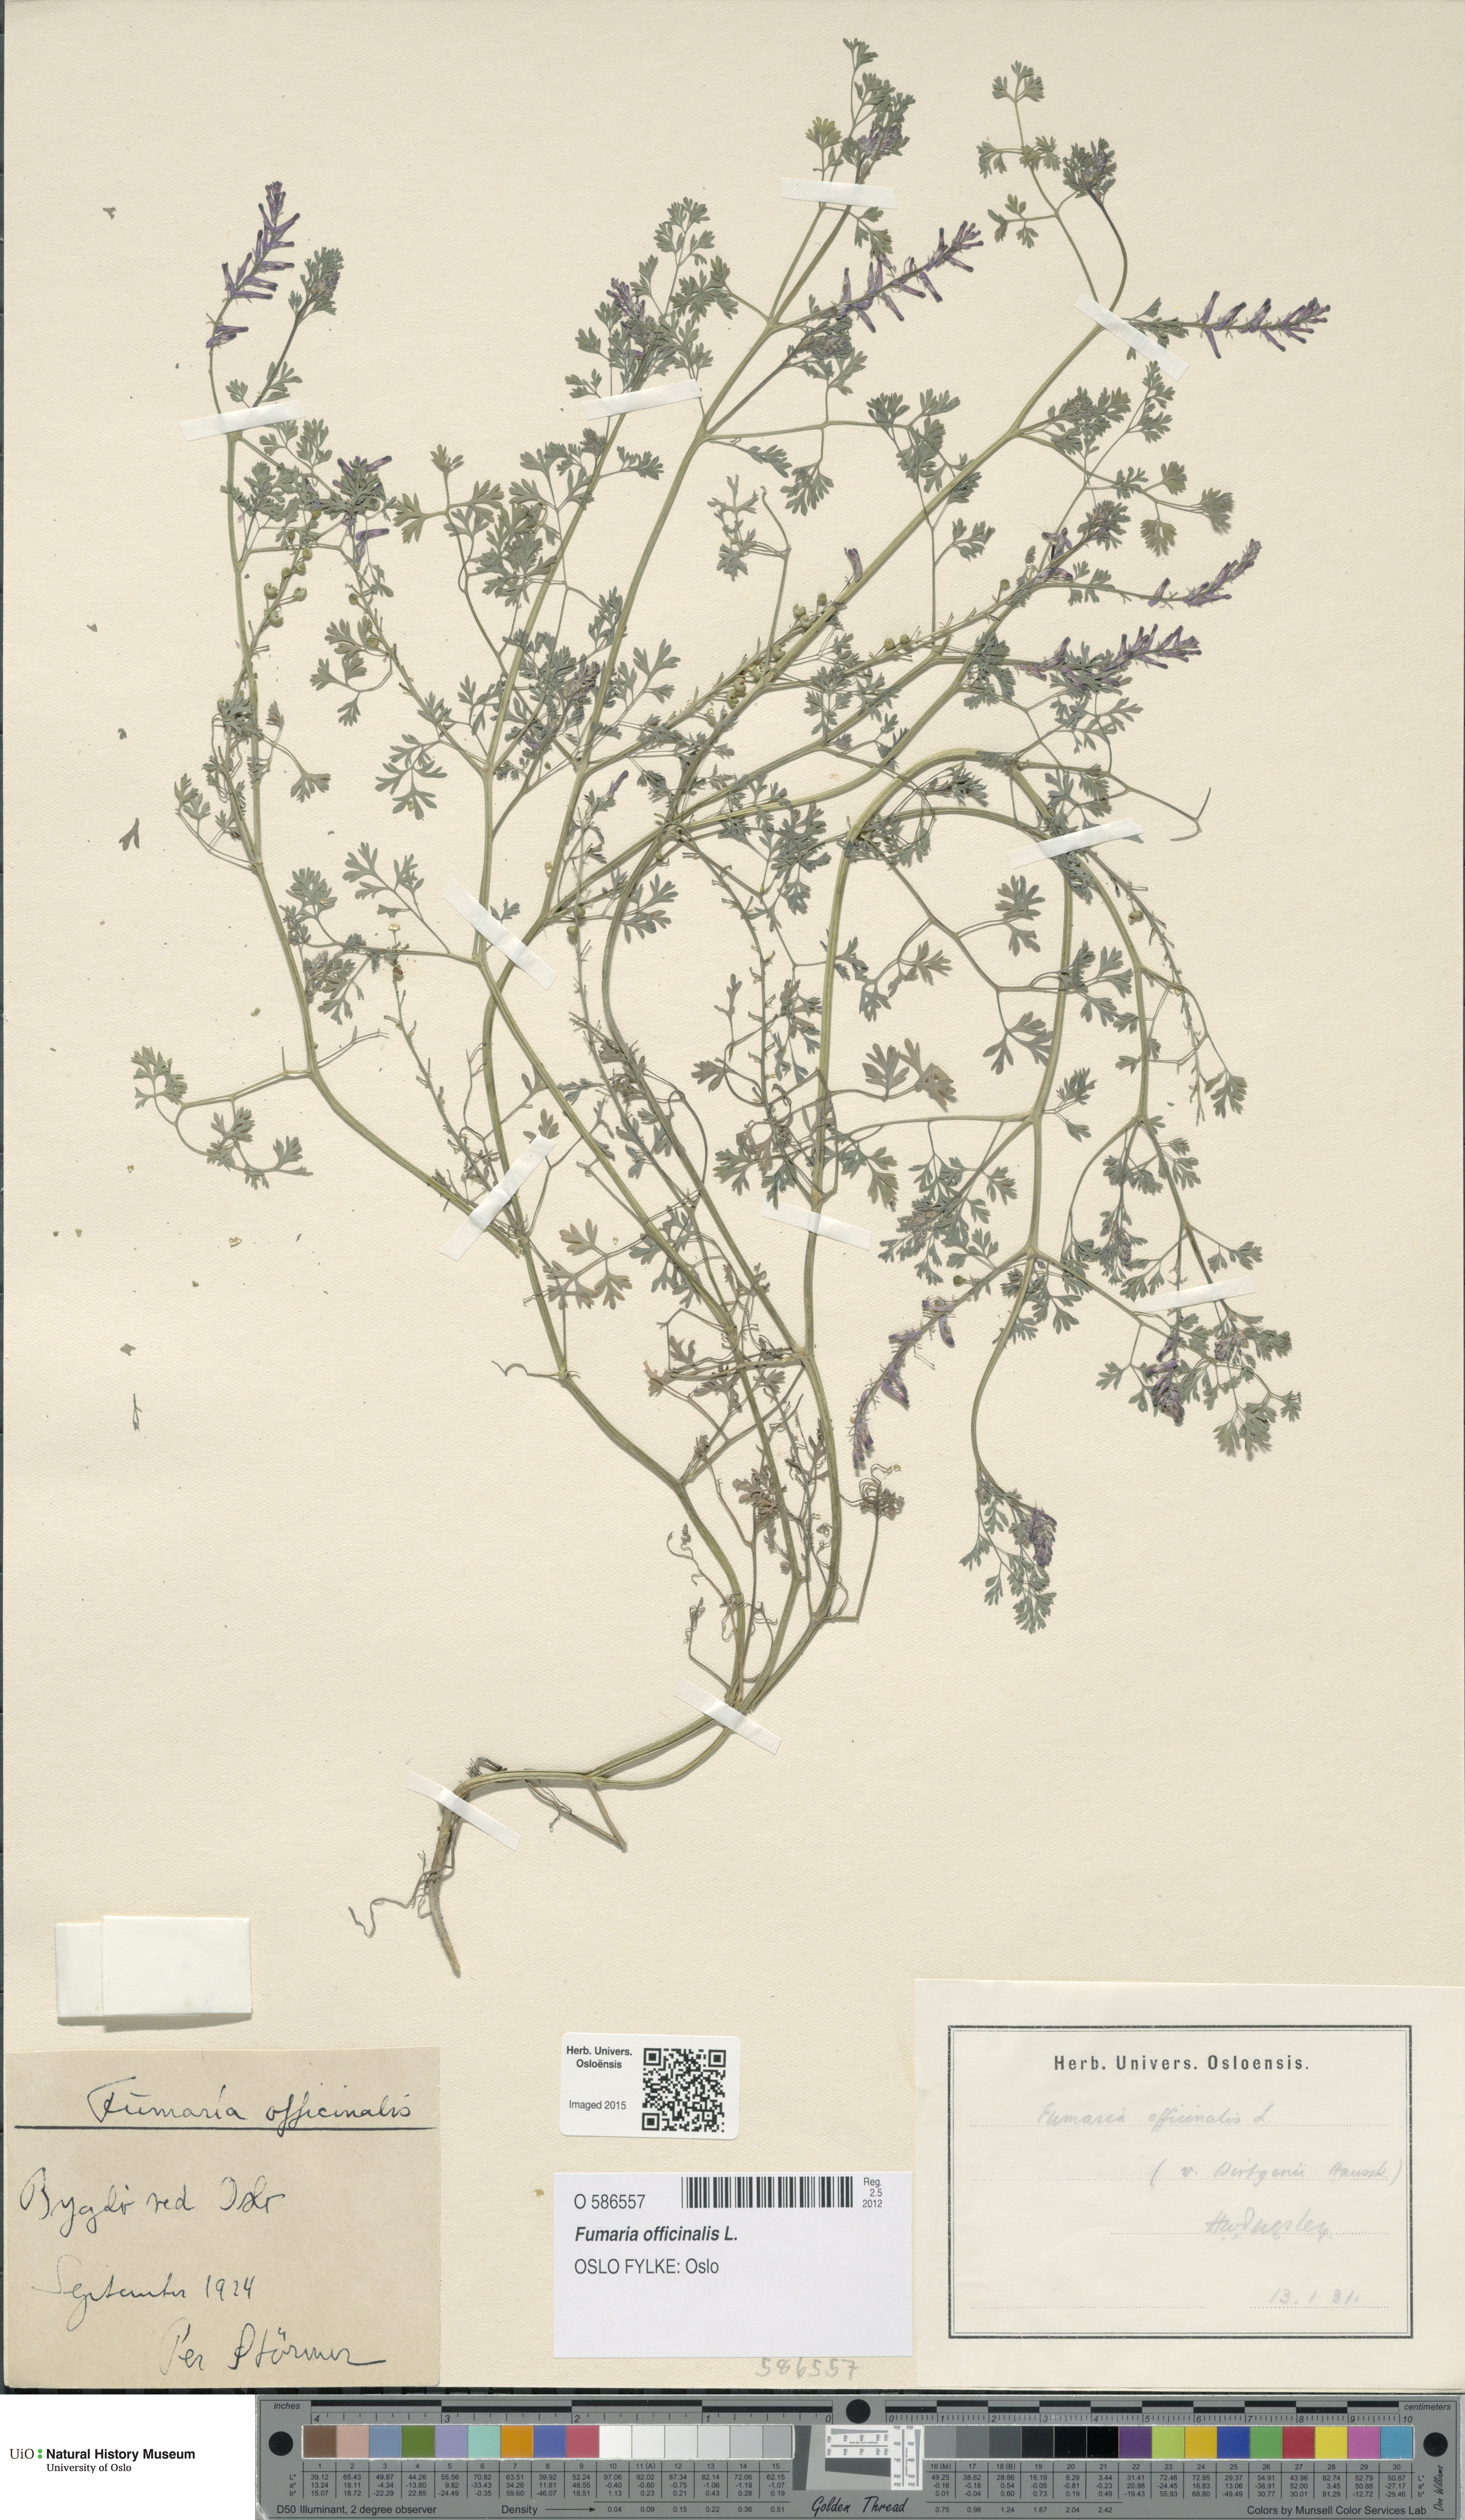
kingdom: Plantae
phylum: Tracheophyta
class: Magnoliopsida
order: Ranunculales
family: Papaveraceae
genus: Fumaria
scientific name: Fumaria officinalis
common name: Common fumitory
